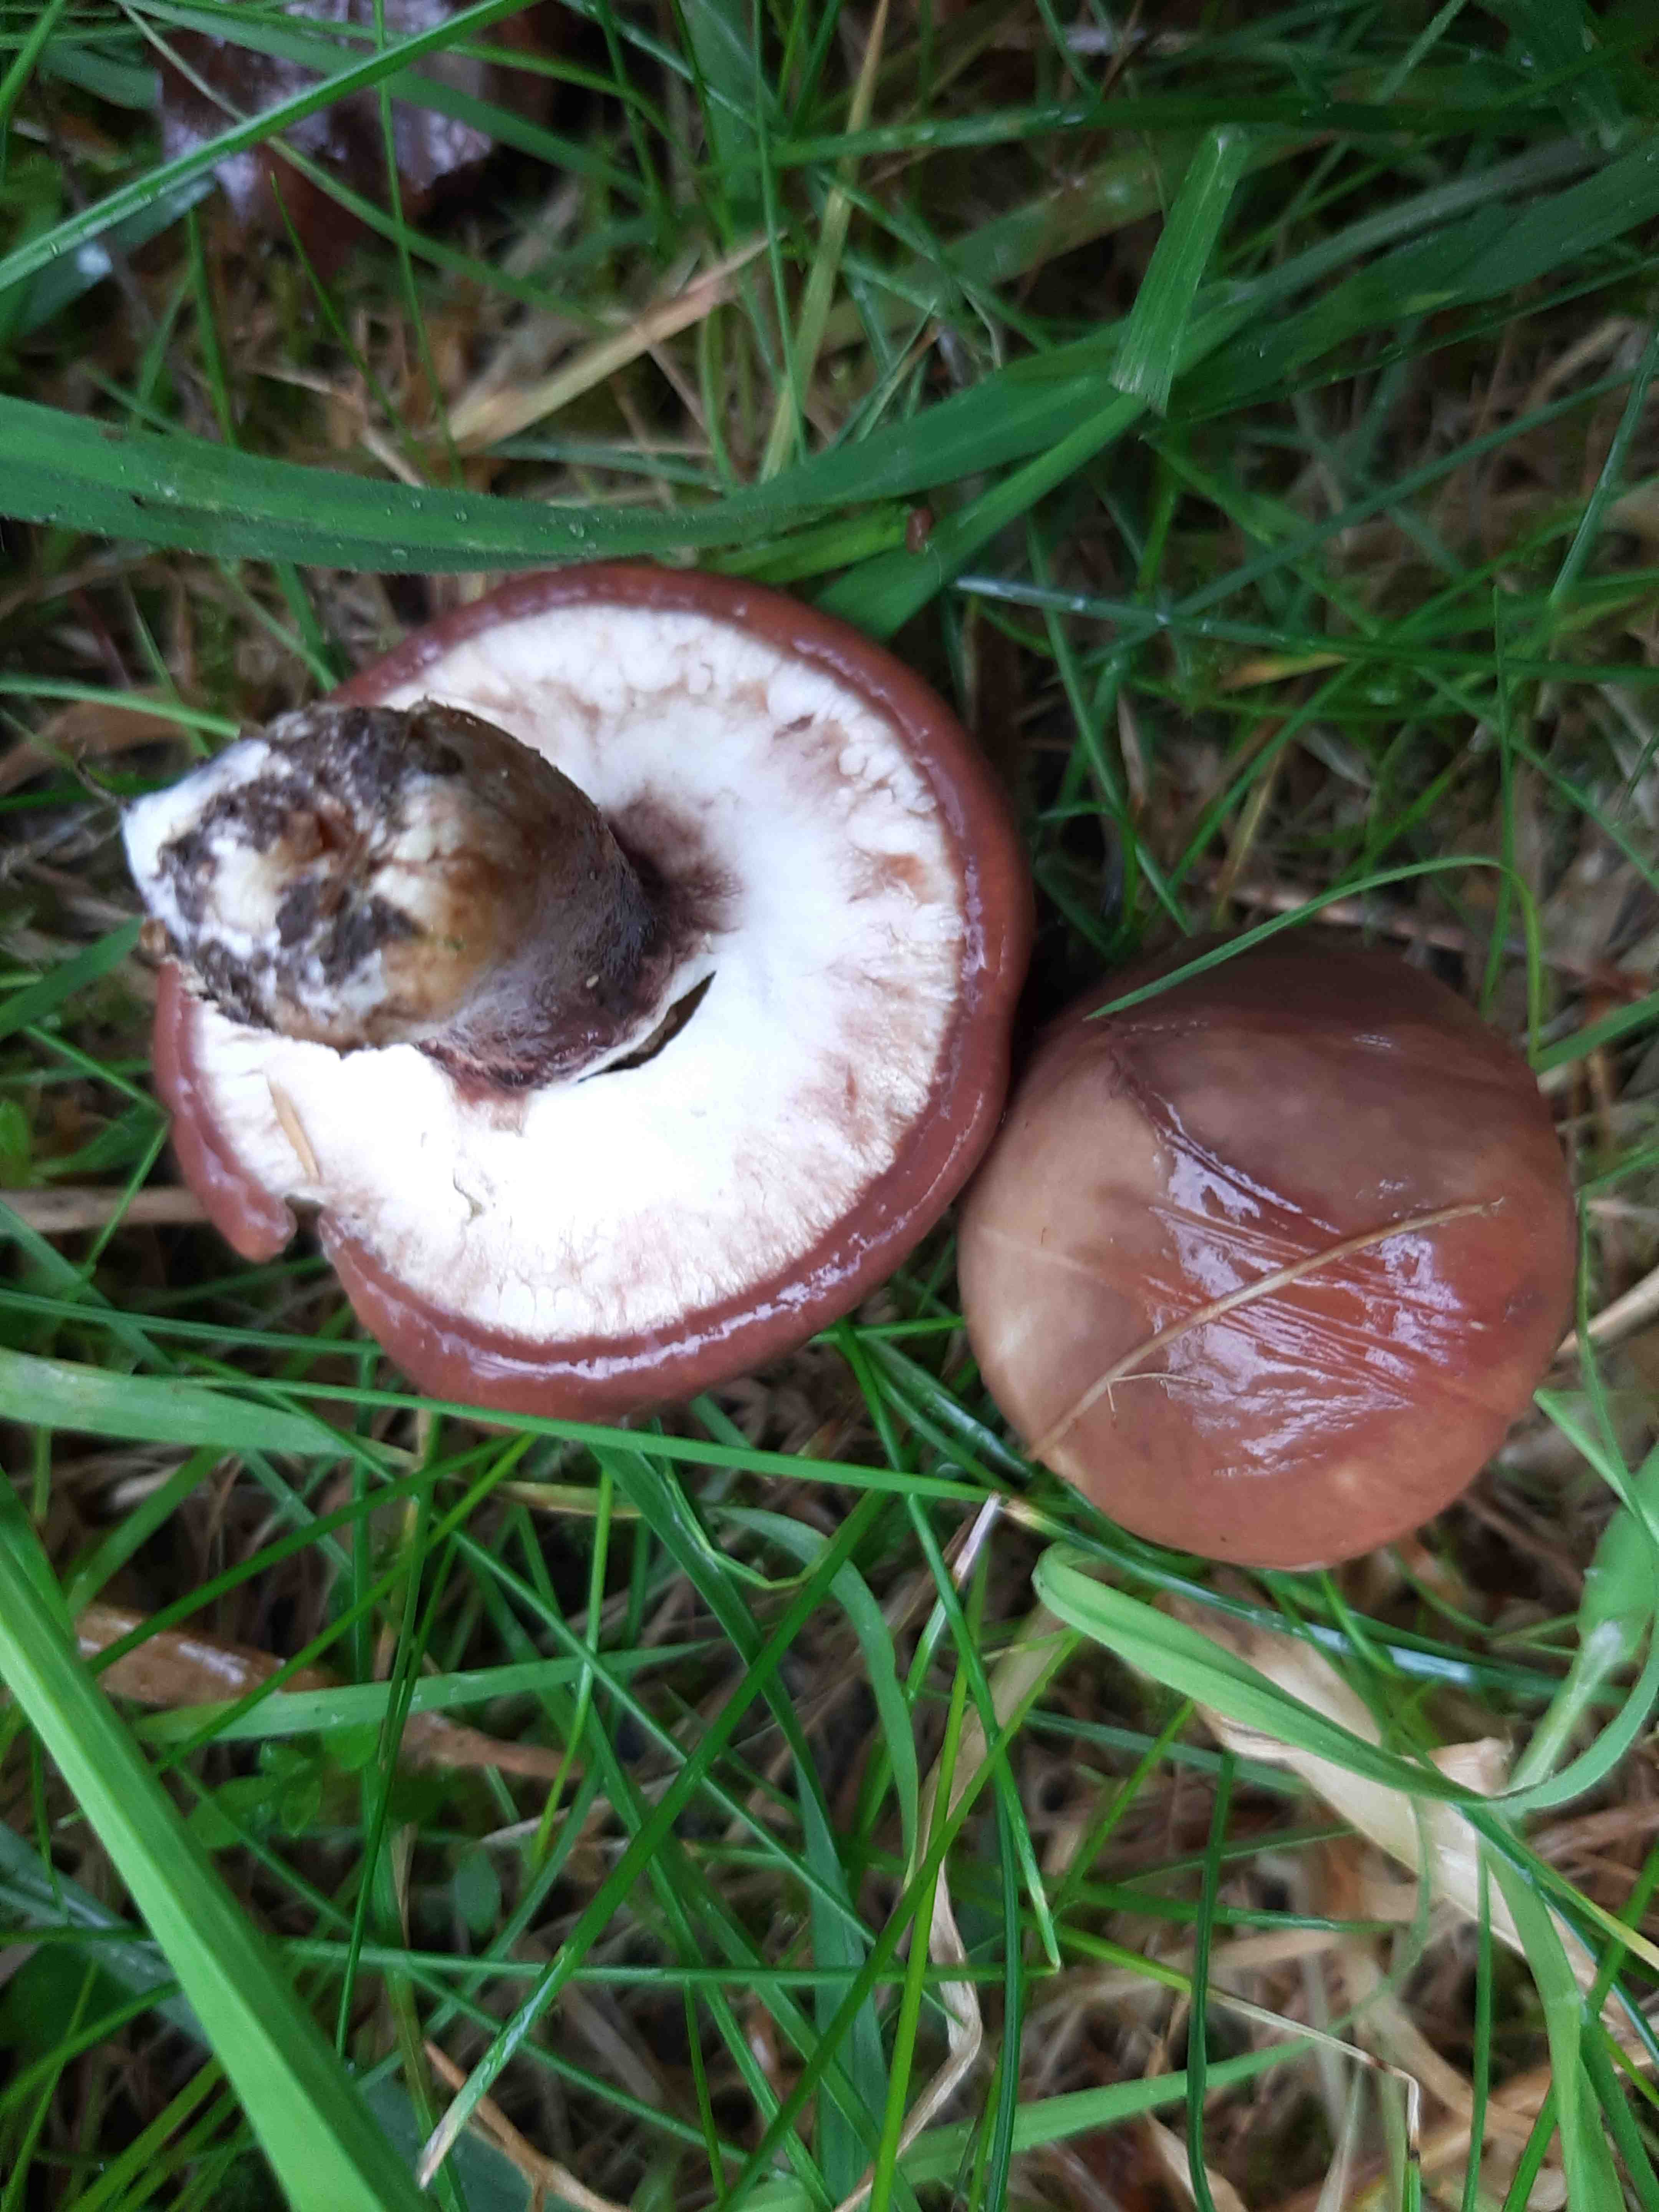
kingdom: Fungi
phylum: Basidiomycota
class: Agaricomycetes
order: Boletales
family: Suillaceae
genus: Suillus
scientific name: Suillus luteus
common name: brungul slimrørhat
